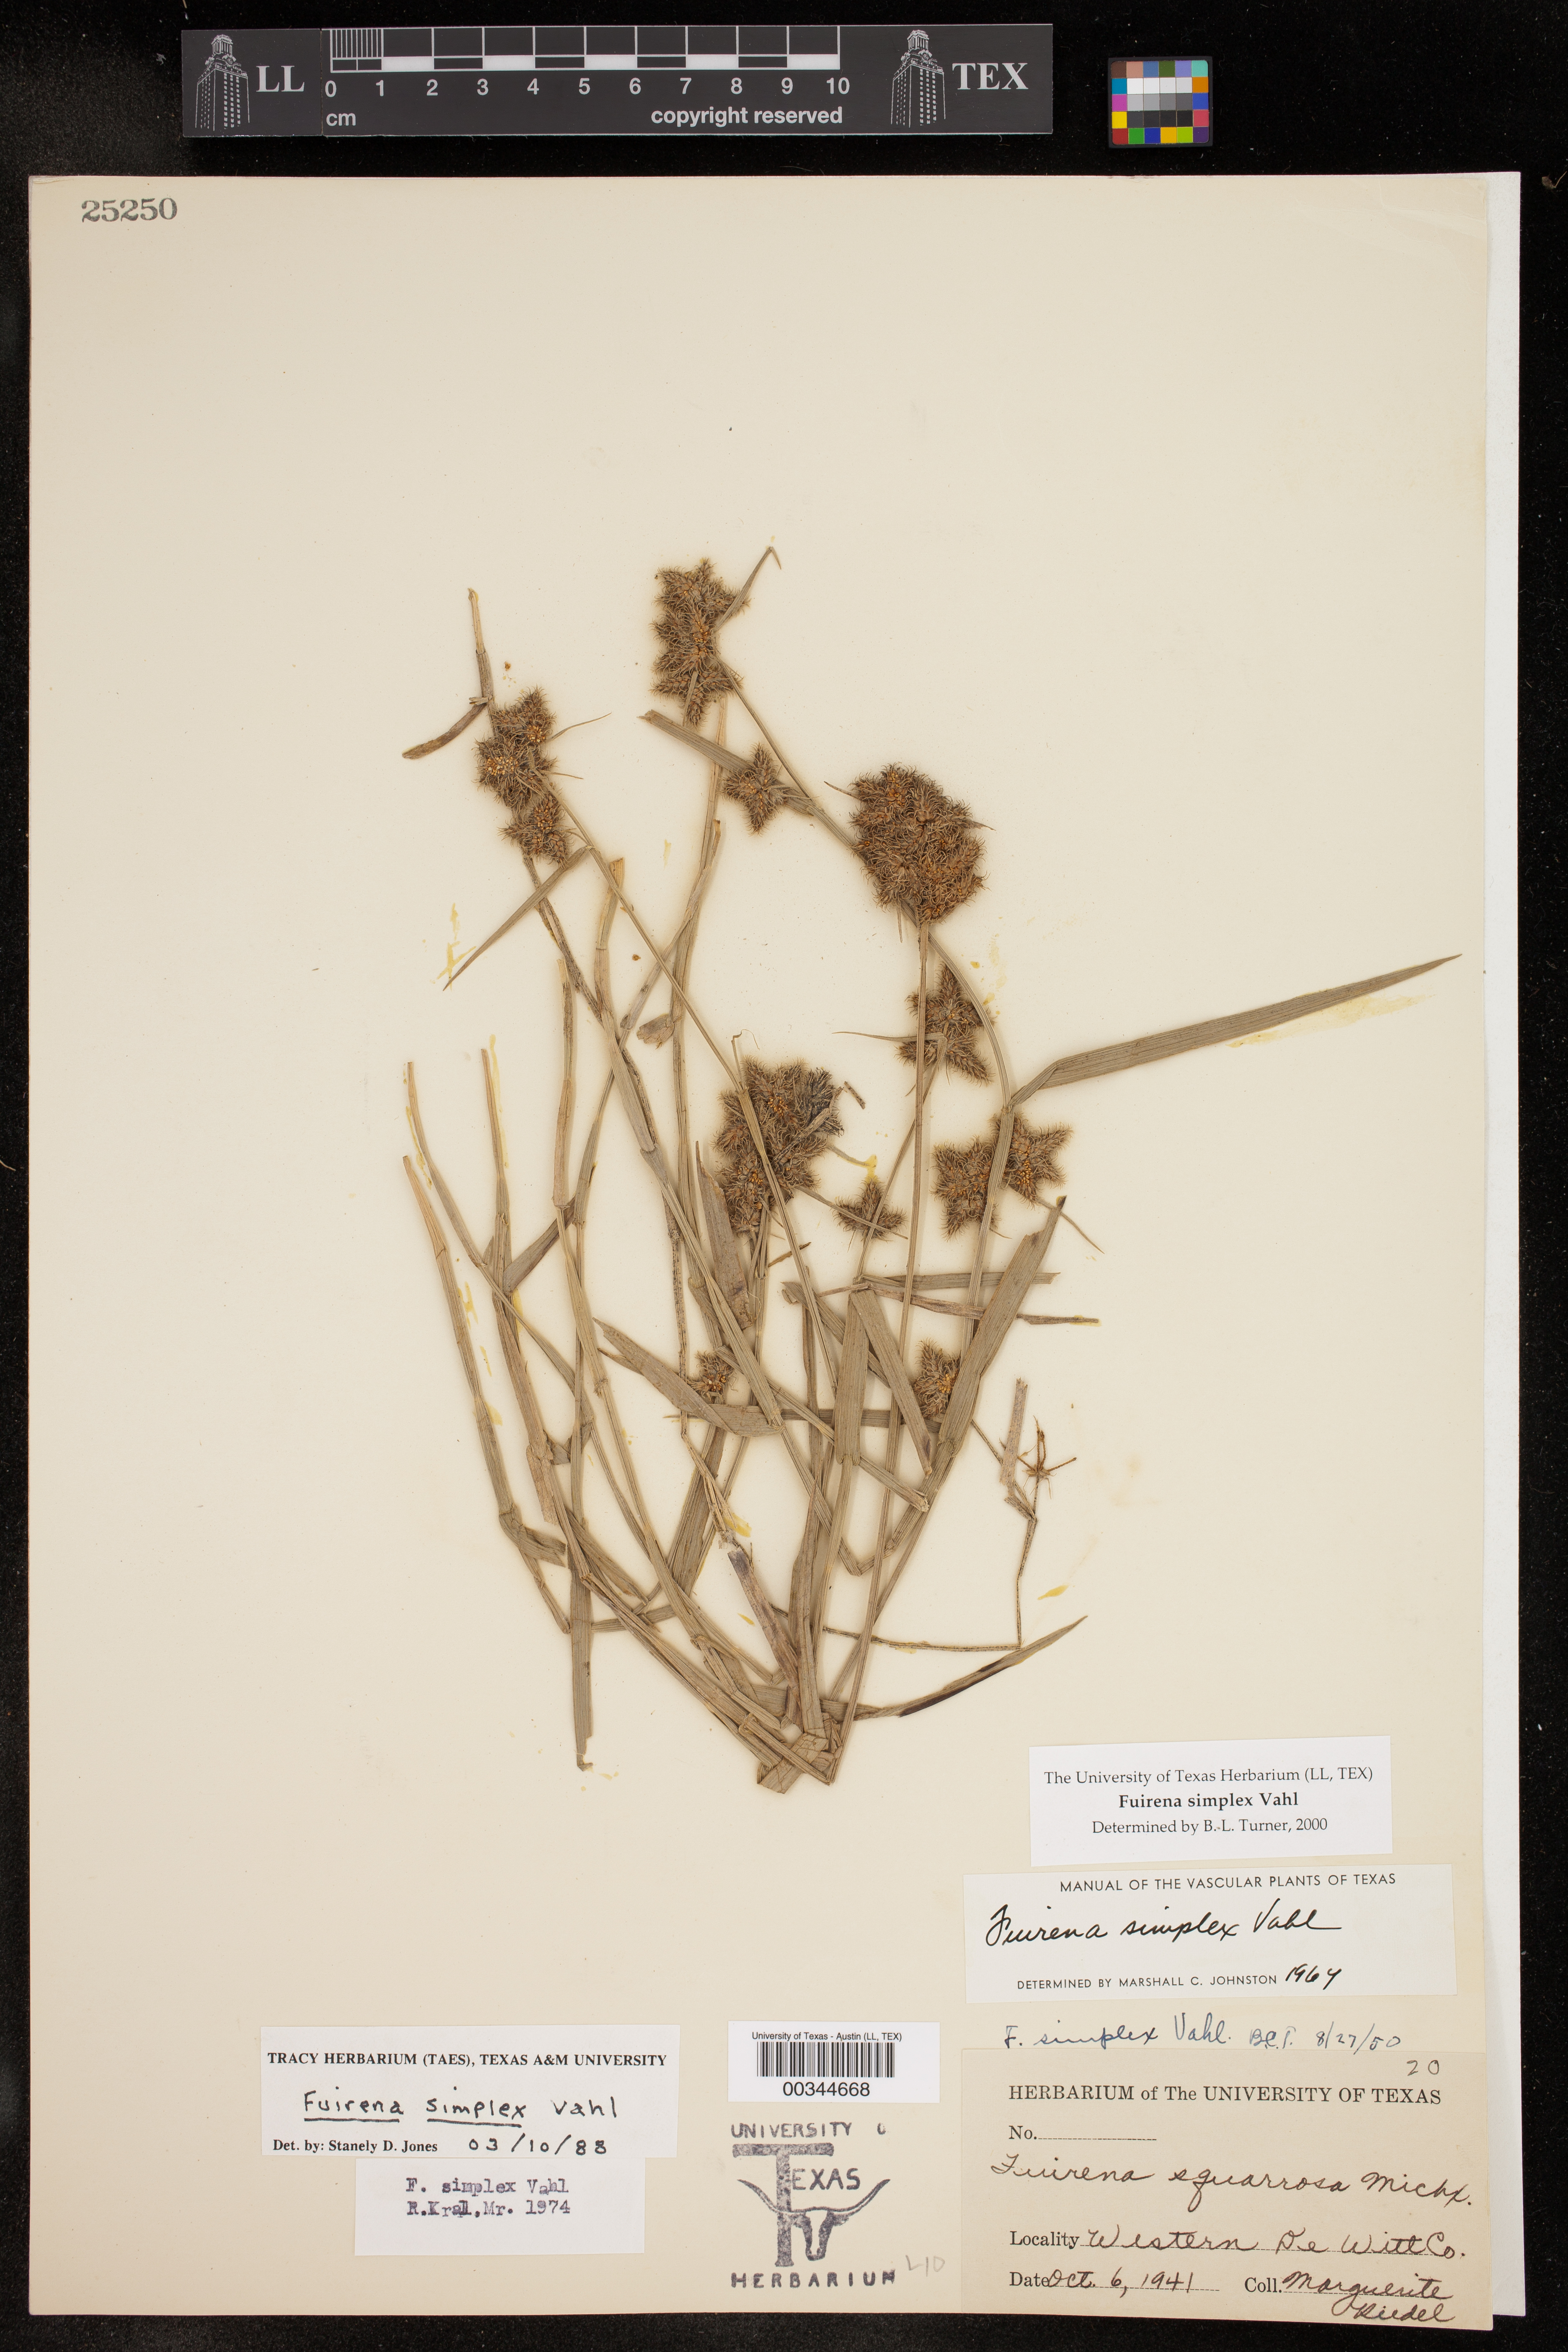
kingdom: Plantae
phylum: Tracheophyta
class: Liliopsida
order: Poales
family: Cyperaceae
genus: Fuirena
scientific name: Fuirena simplex
